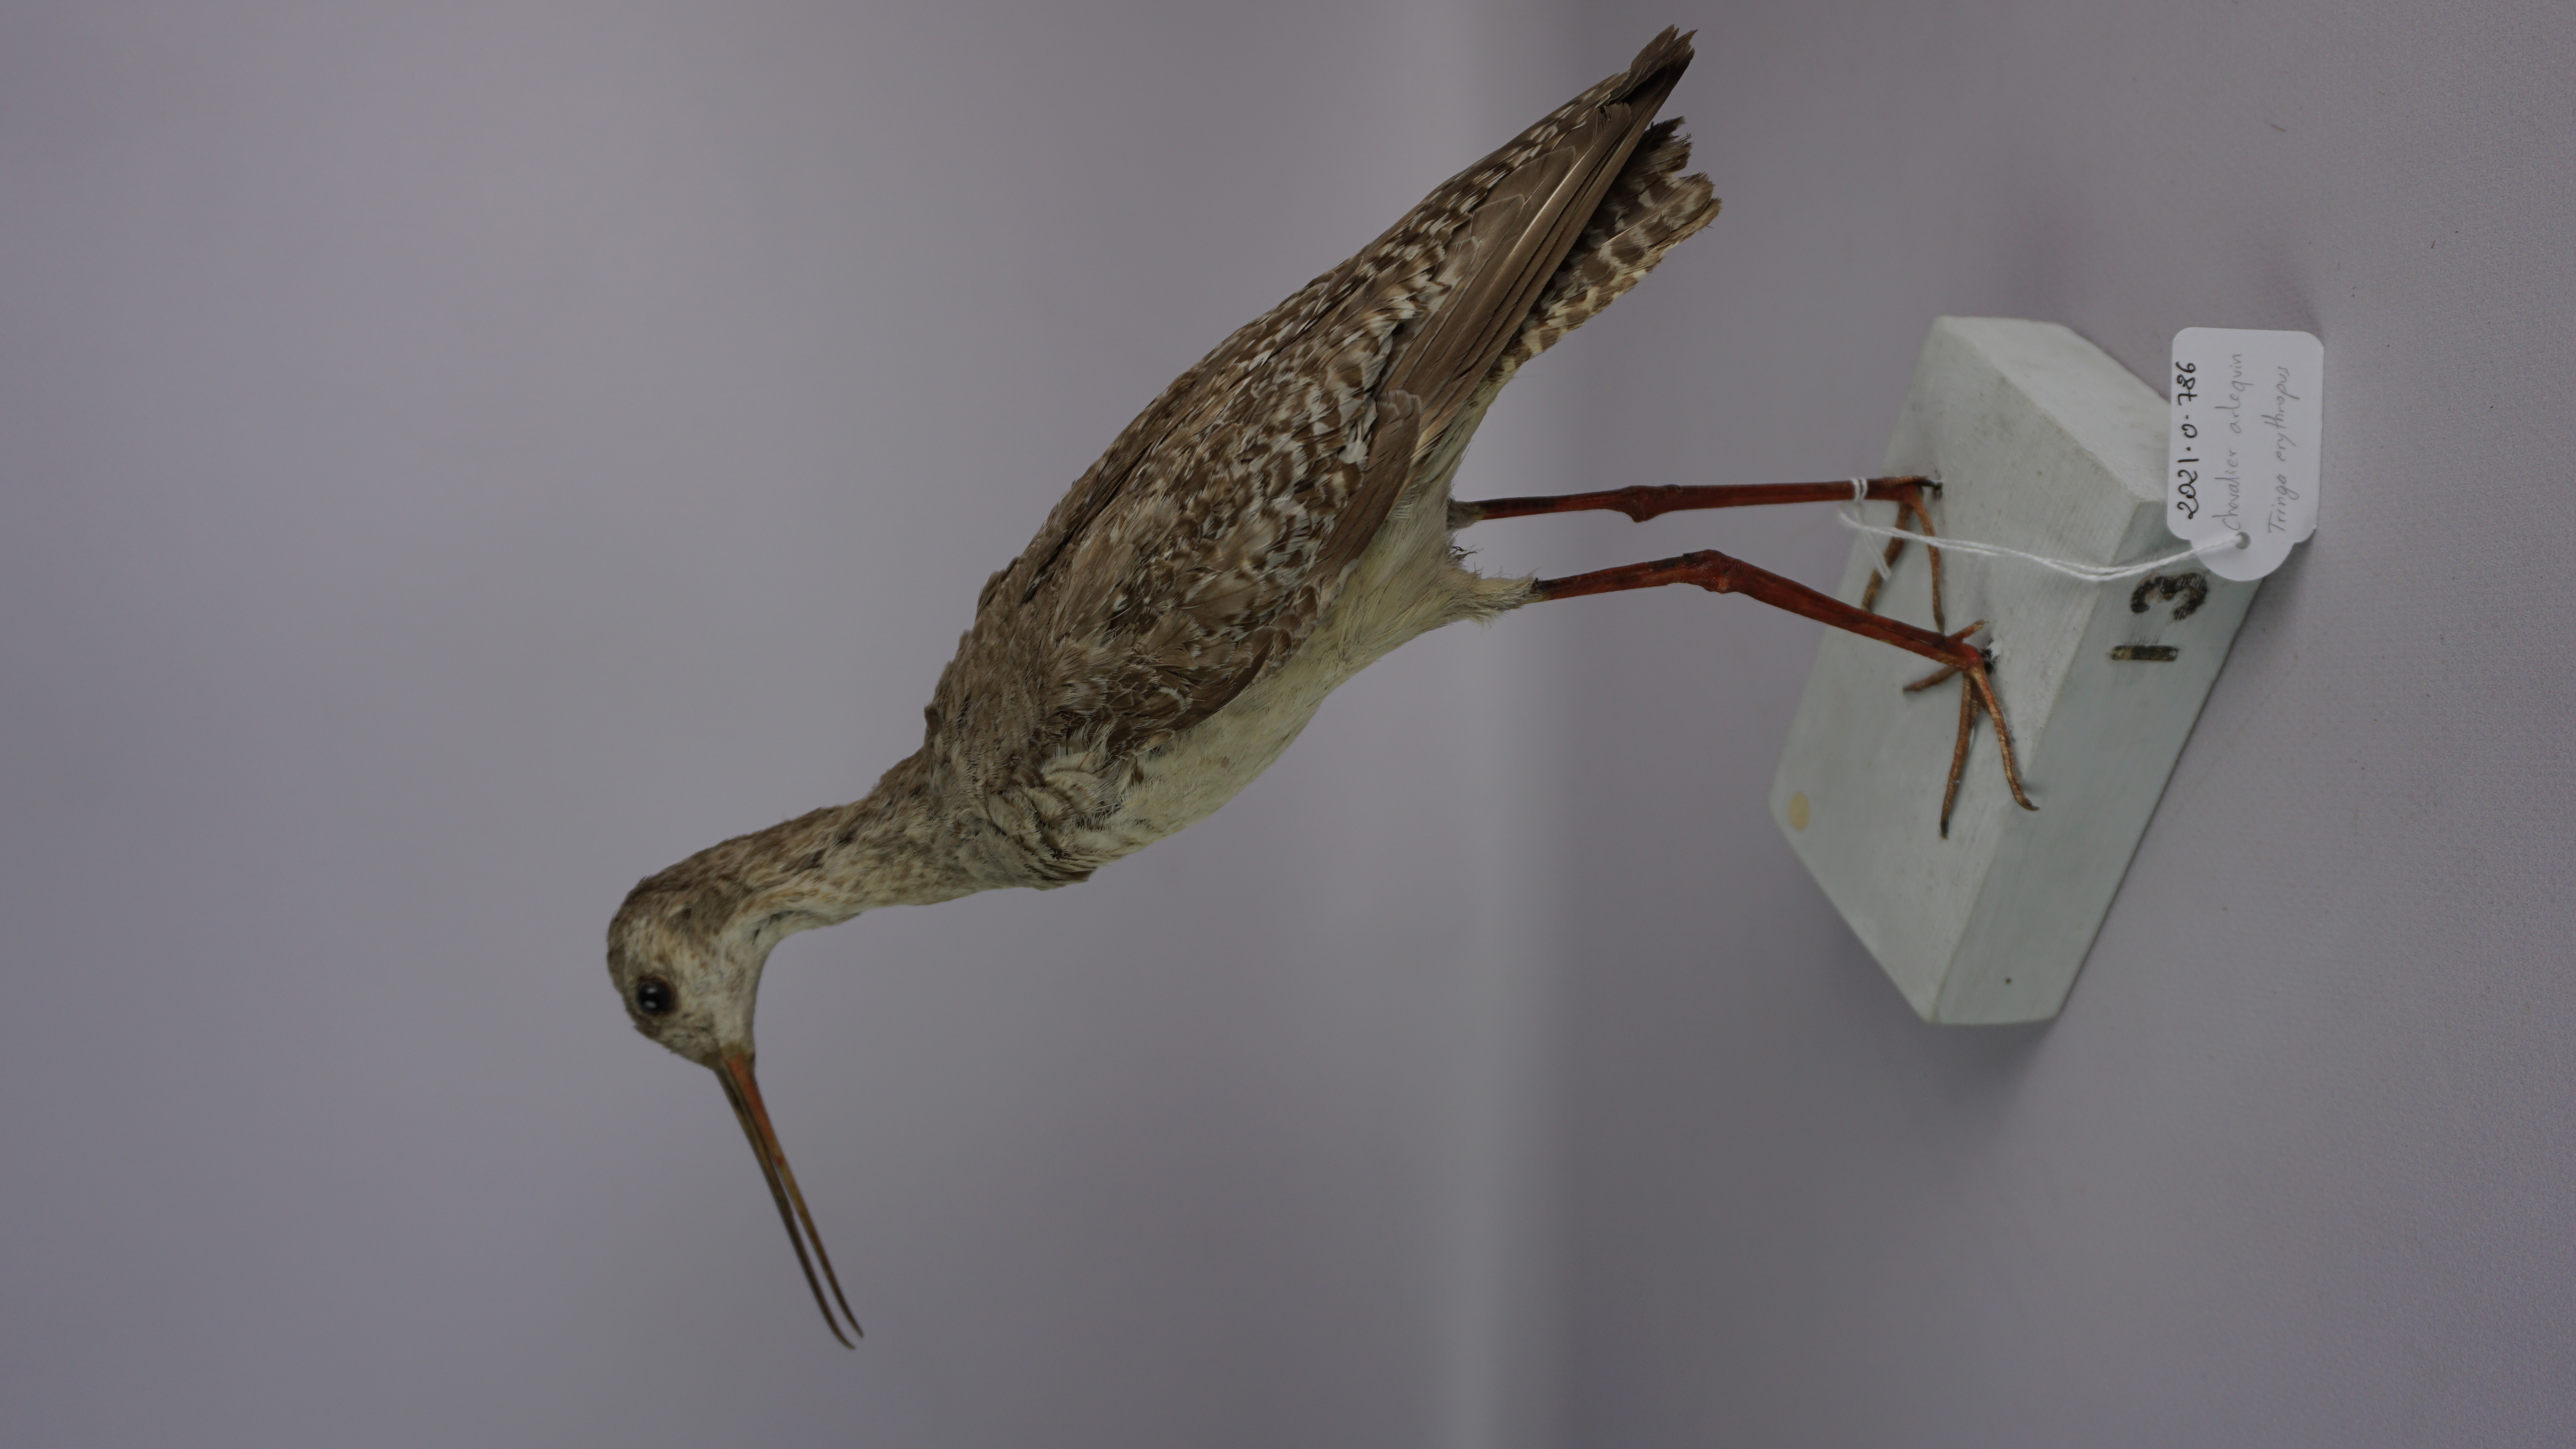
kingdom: Animalia
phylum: Chordata
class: Aves
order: Charadriiformes
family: Scolopacidae
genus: Tringa
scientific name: Tringa erythropus
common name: Spotted redshank
